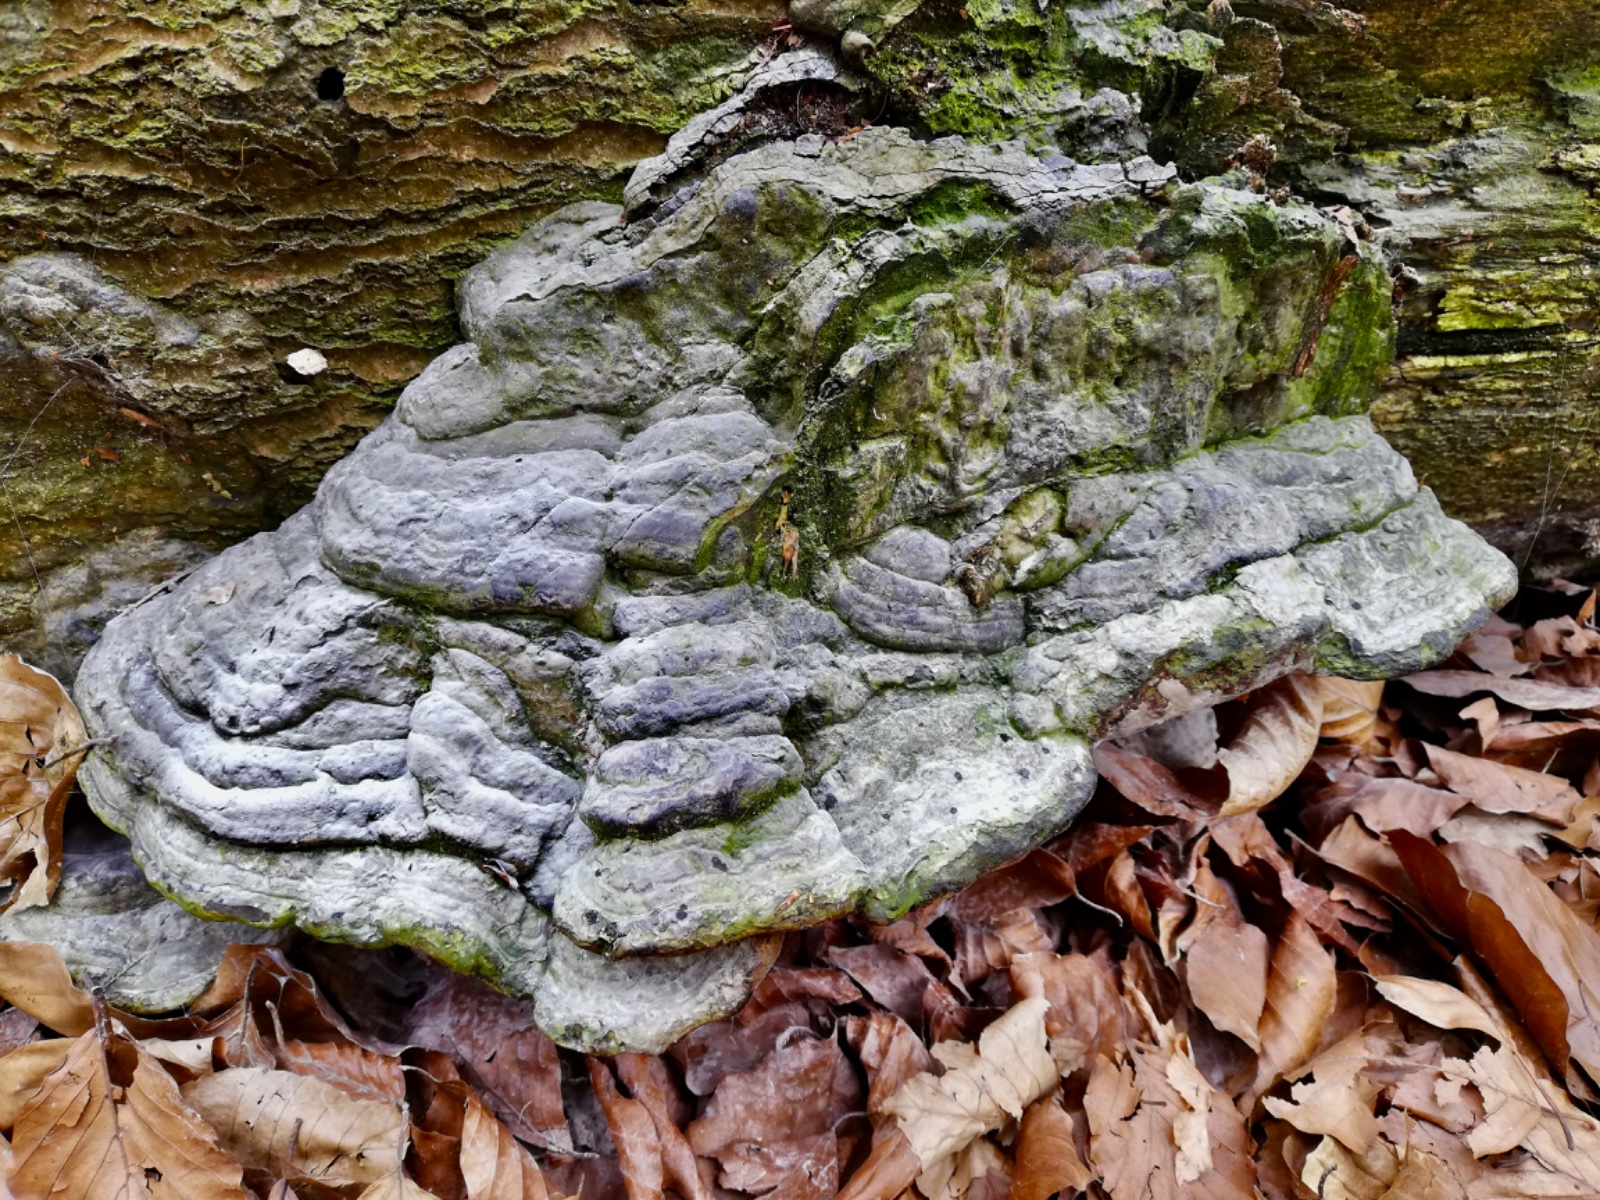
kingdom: Fungi
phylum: Basidiomycota
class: Agaricomycetes
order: Polyporales
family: Polyporaceae
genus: Fomes
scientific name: Fomes fomentarius
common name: tøndersvamp
